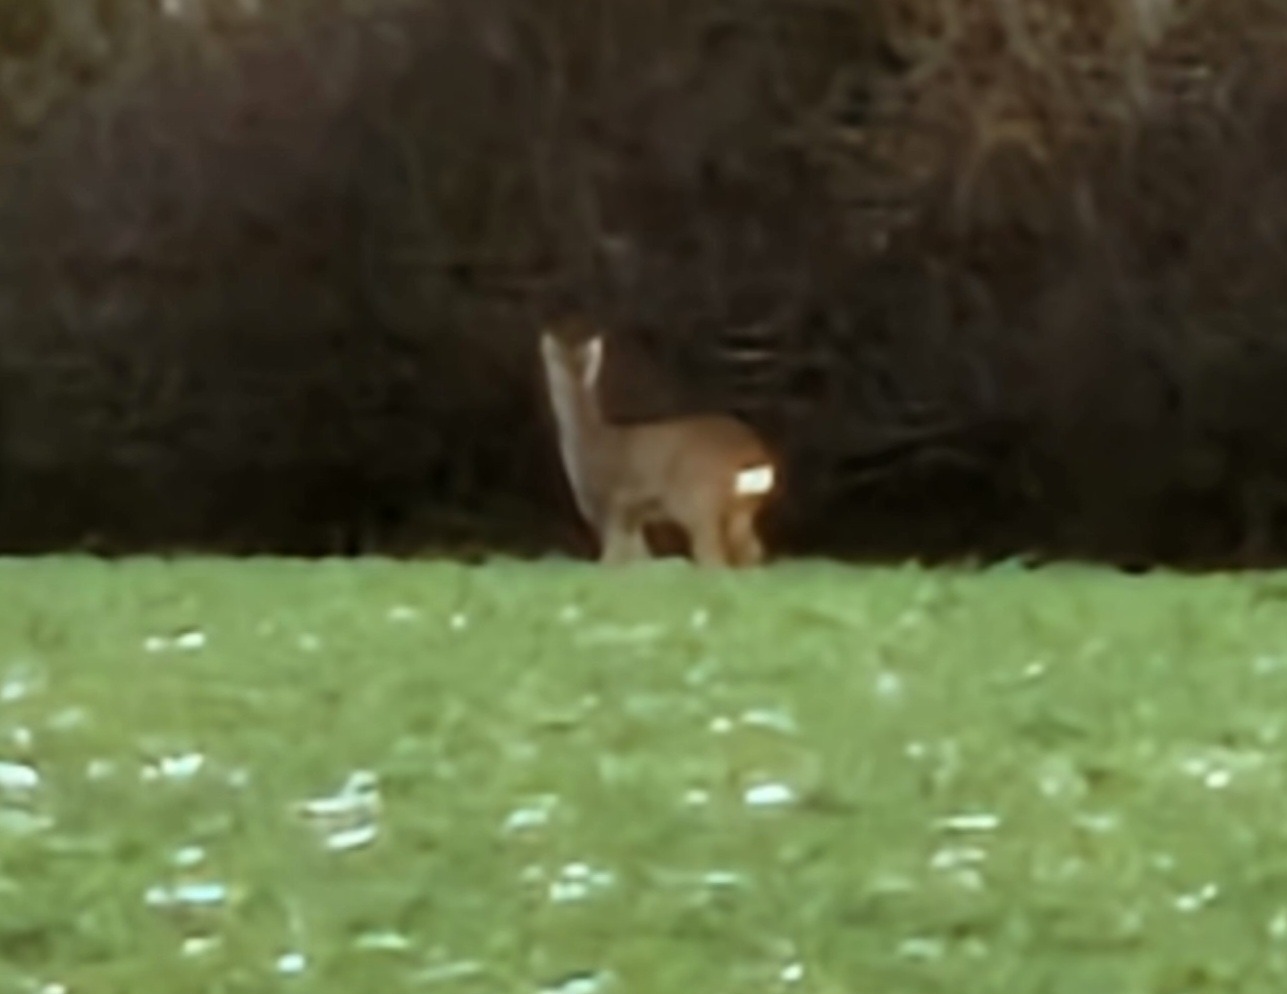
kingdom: Animalia
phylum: Chordata
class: Mammalia
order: Artiodactyla
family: Cervidae
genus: Capreolus
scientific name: Capreolus capreolus
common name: Rådyr
